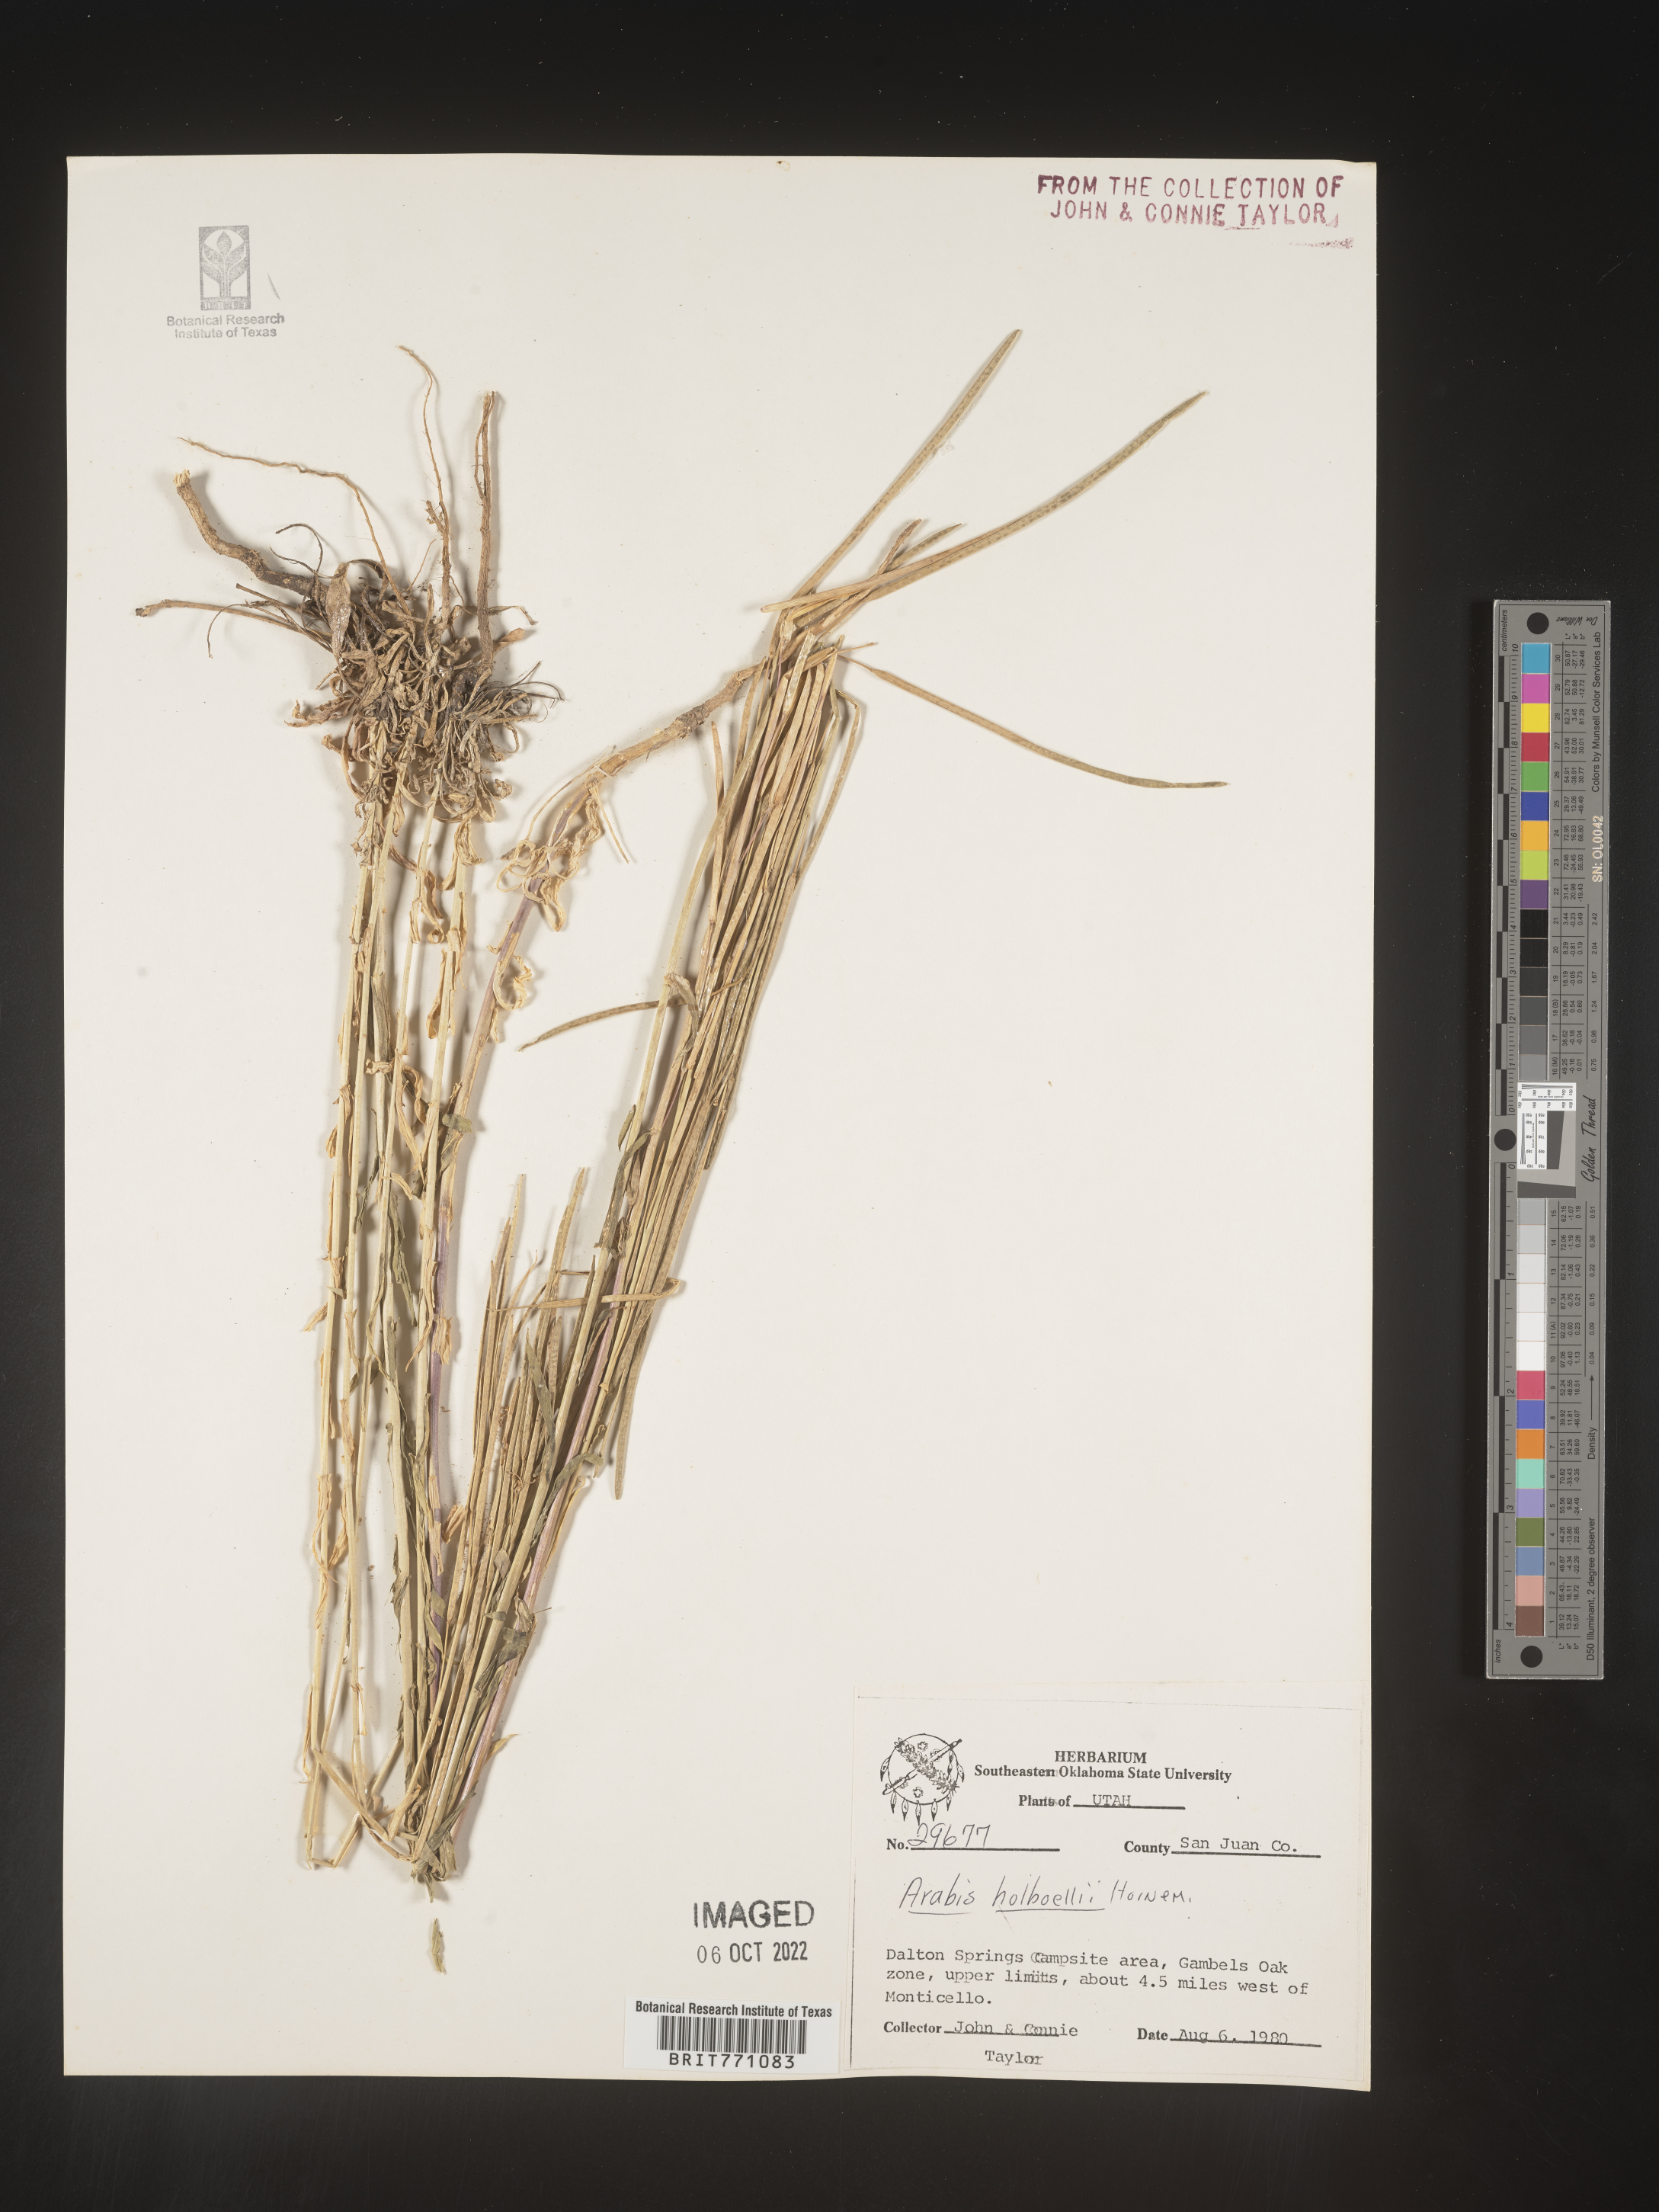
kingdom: Plantae
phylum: Tracheophyta
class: Magnoliopsida
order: Brassicales
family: Brassicaceae
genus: Boechera
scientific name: Boechera holboellii
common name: Holboell's rockcress
